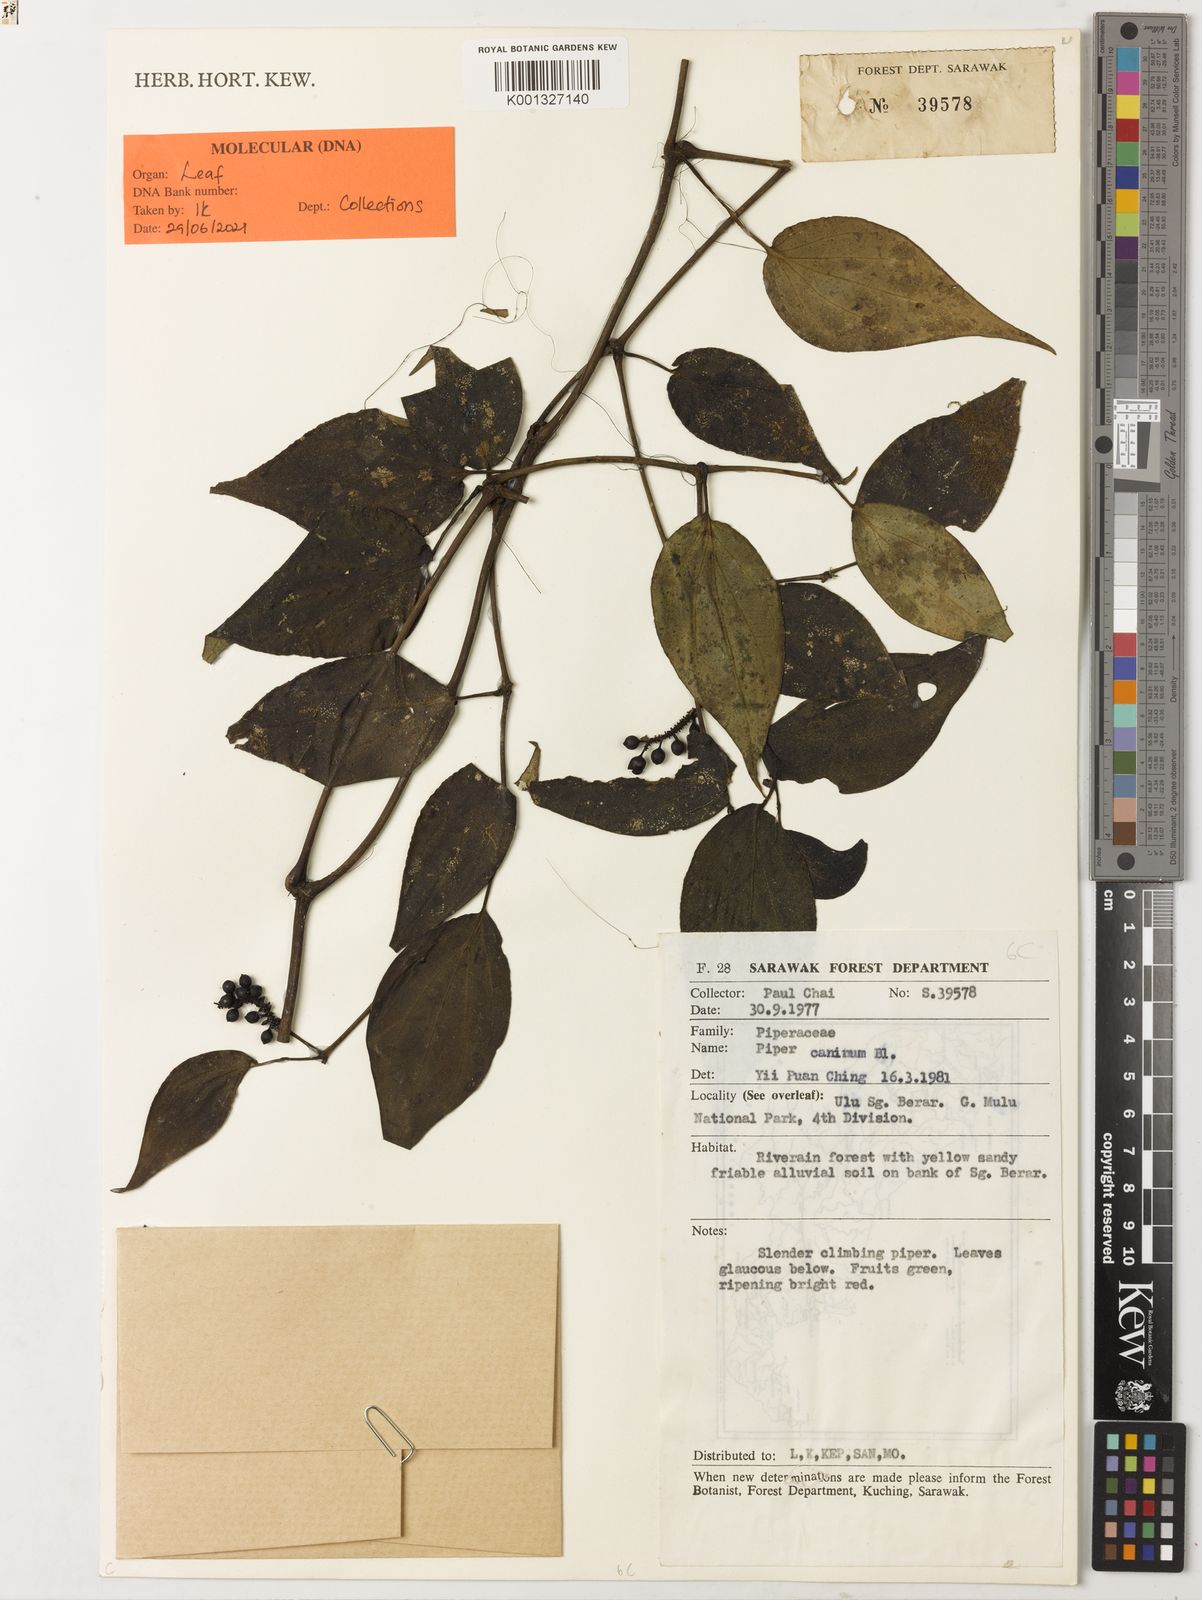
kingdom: Plantae
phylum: Tracheophyta
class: Magnoliopsida
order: Piperales
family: Piperaceae
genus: Piper
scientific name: Piper lanatum
